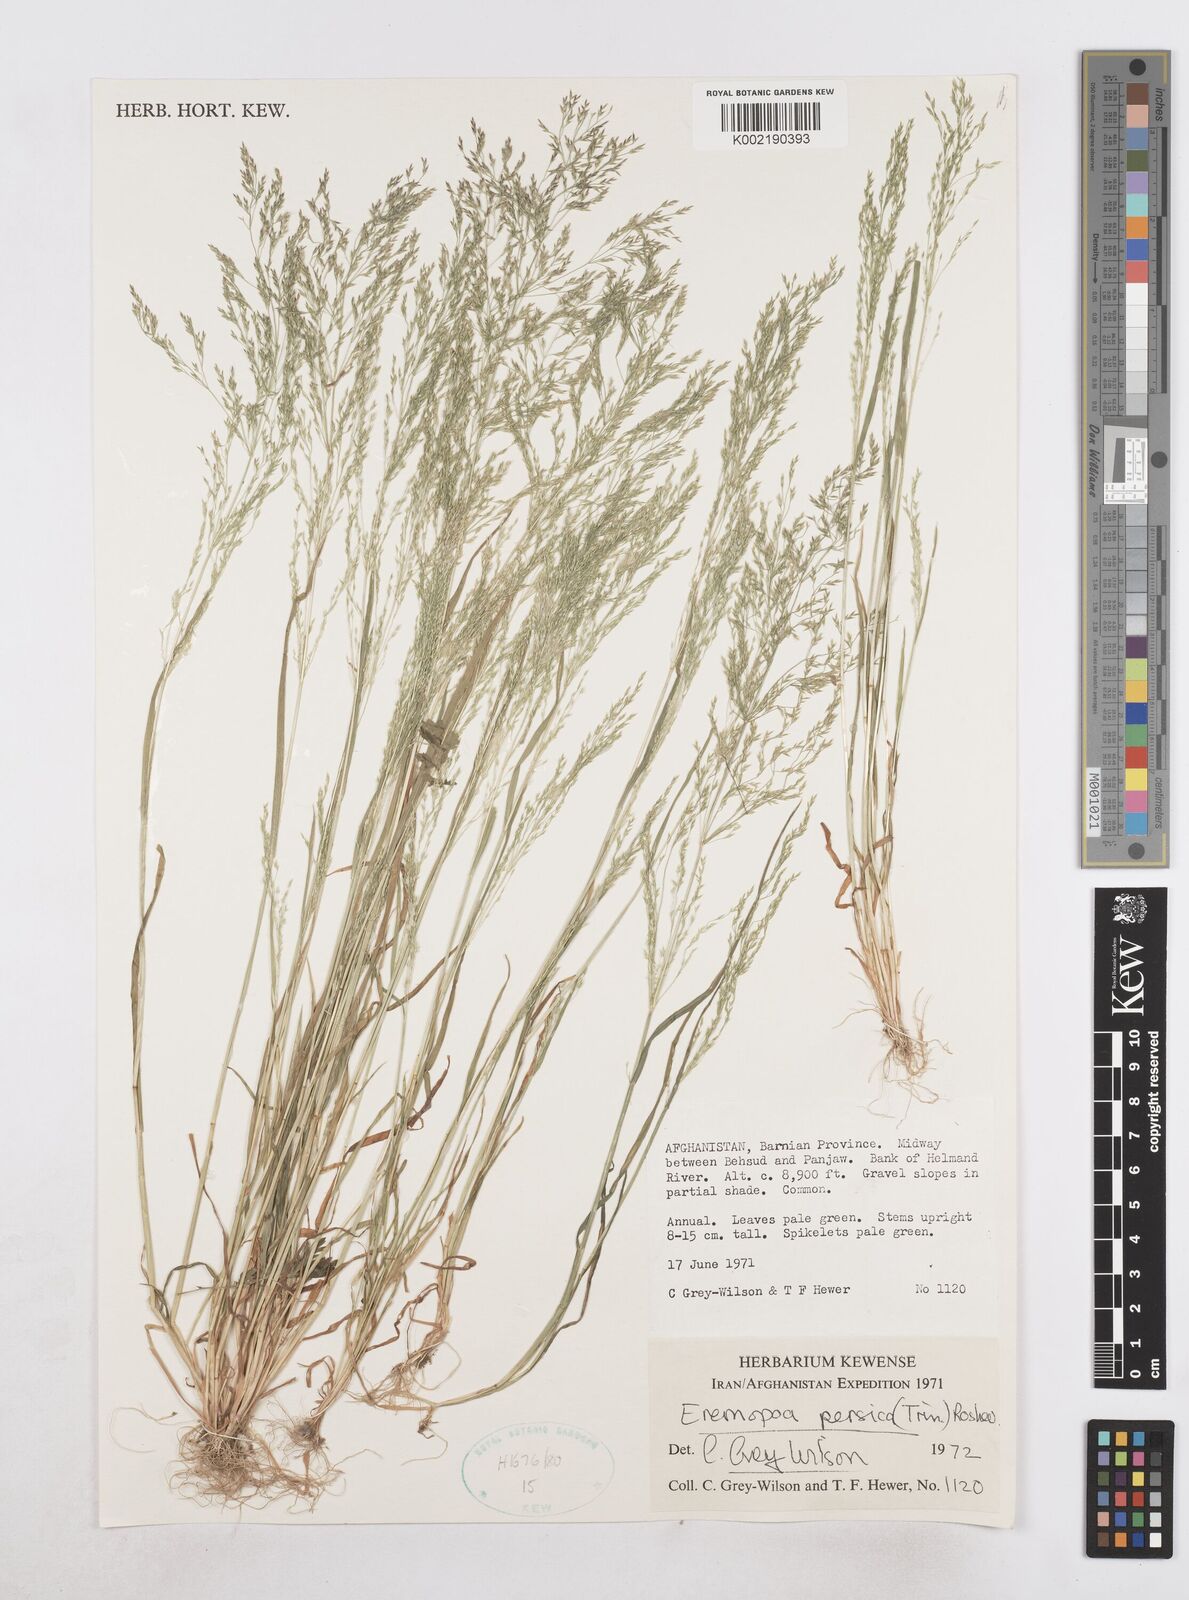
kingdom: Plantae
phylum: Tracheophyta
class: Liliopsida
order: Poales
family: Poaceae
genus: Poa
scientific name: Poa persica
